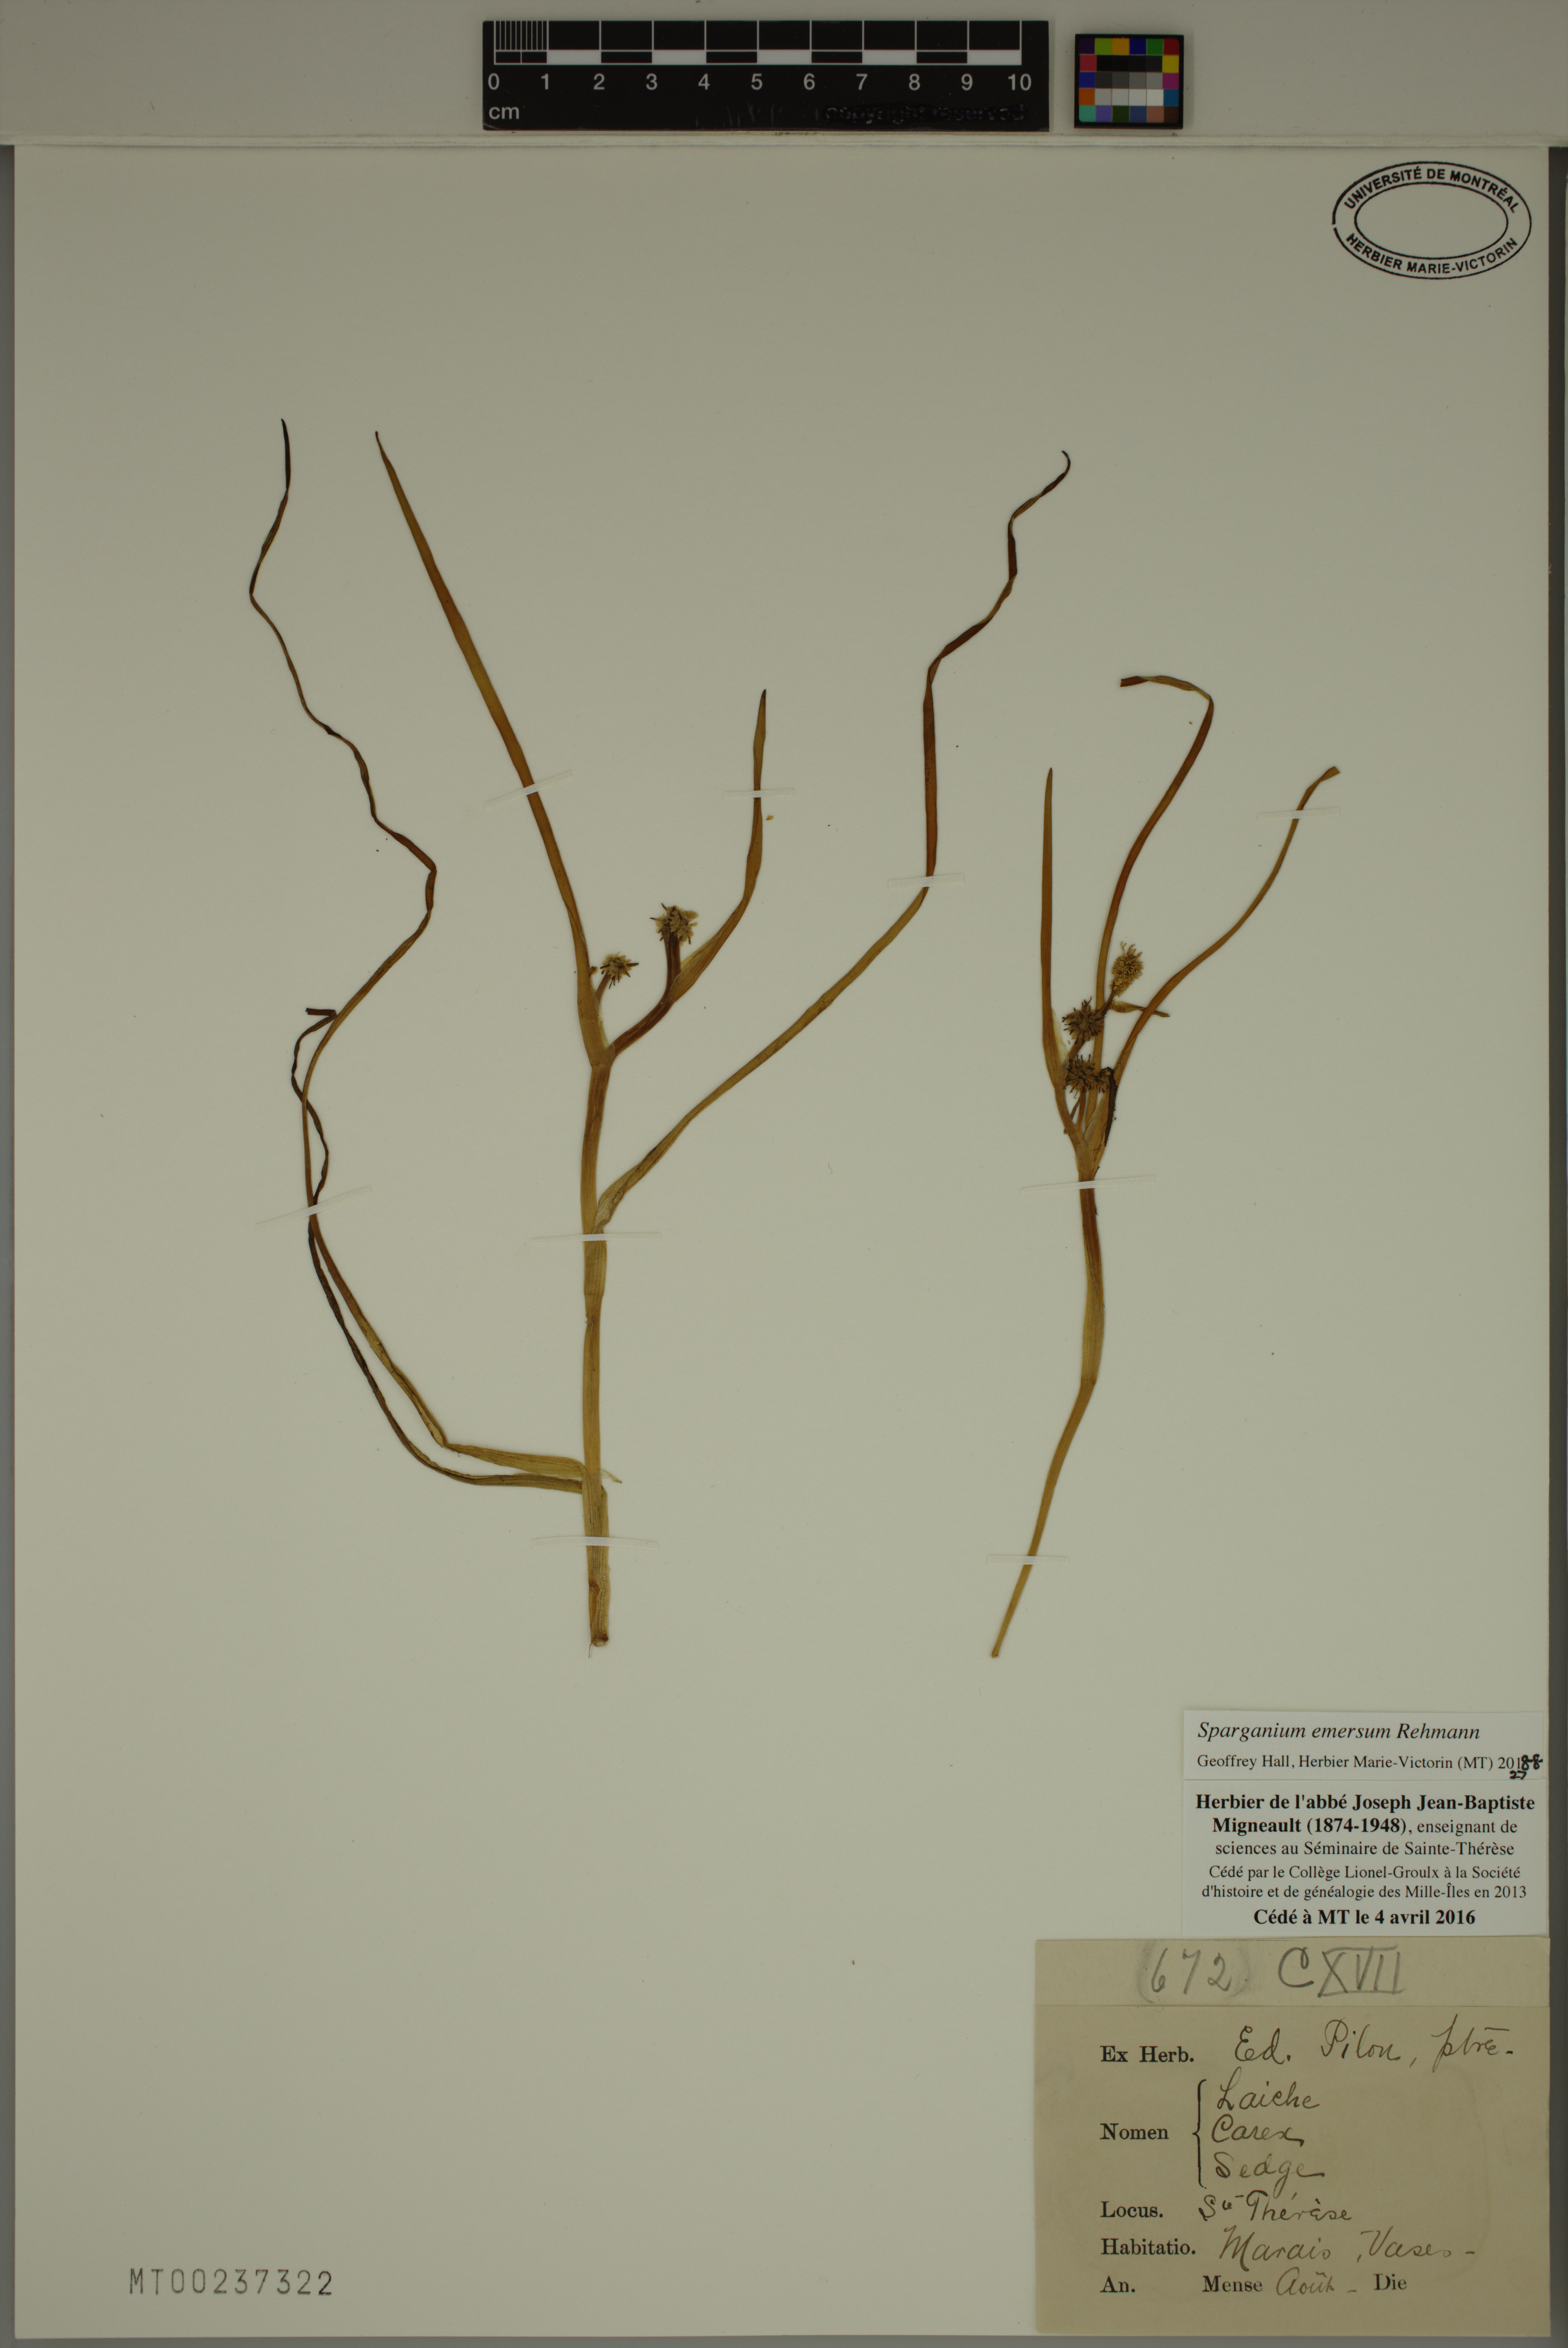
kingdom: Plantae
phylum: Tracheophyta
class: Liliopsida
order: Poales
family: Typhaceae
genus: Sparganium
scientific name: Sparganium emersum
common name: Unbranched bur-reed
